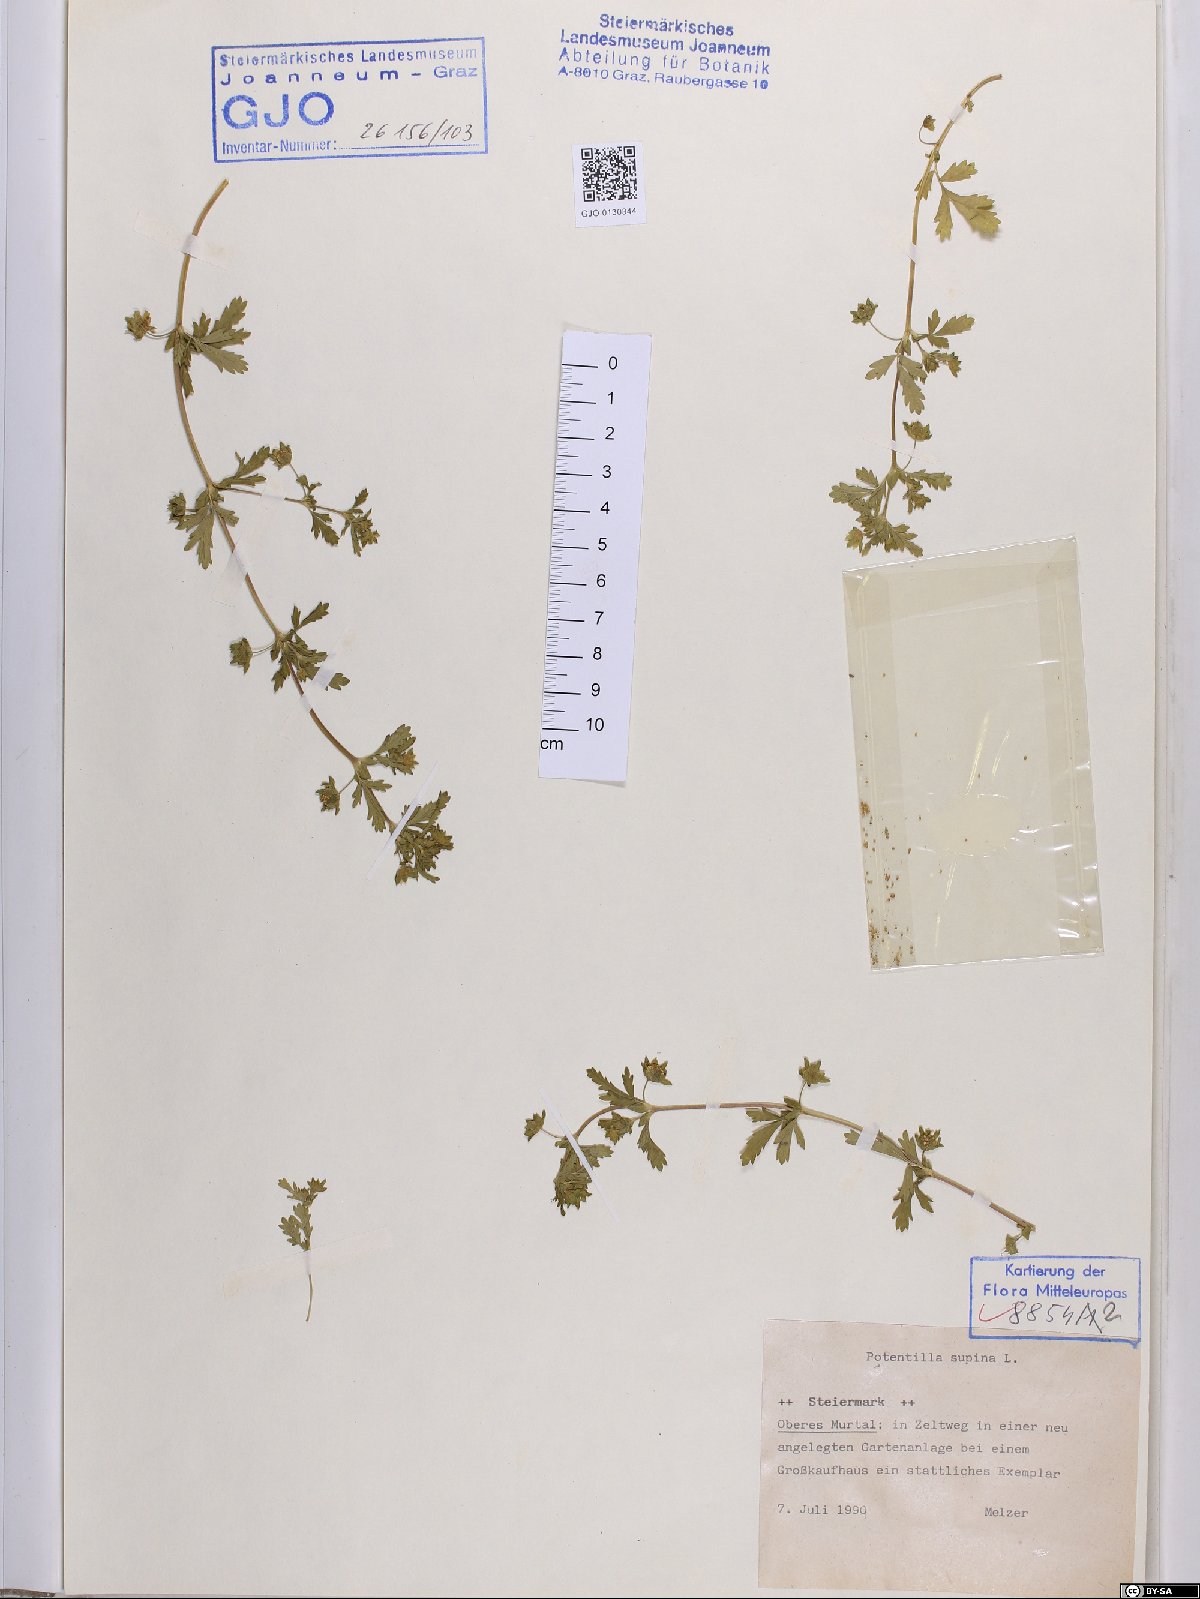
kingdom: Plantae
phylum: Tracheophyta
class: Magnoliopsida
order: Rosales
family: Rosaceae
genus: Potentilla
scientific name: Potentilla supina
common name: Prostrate cinquefoil
